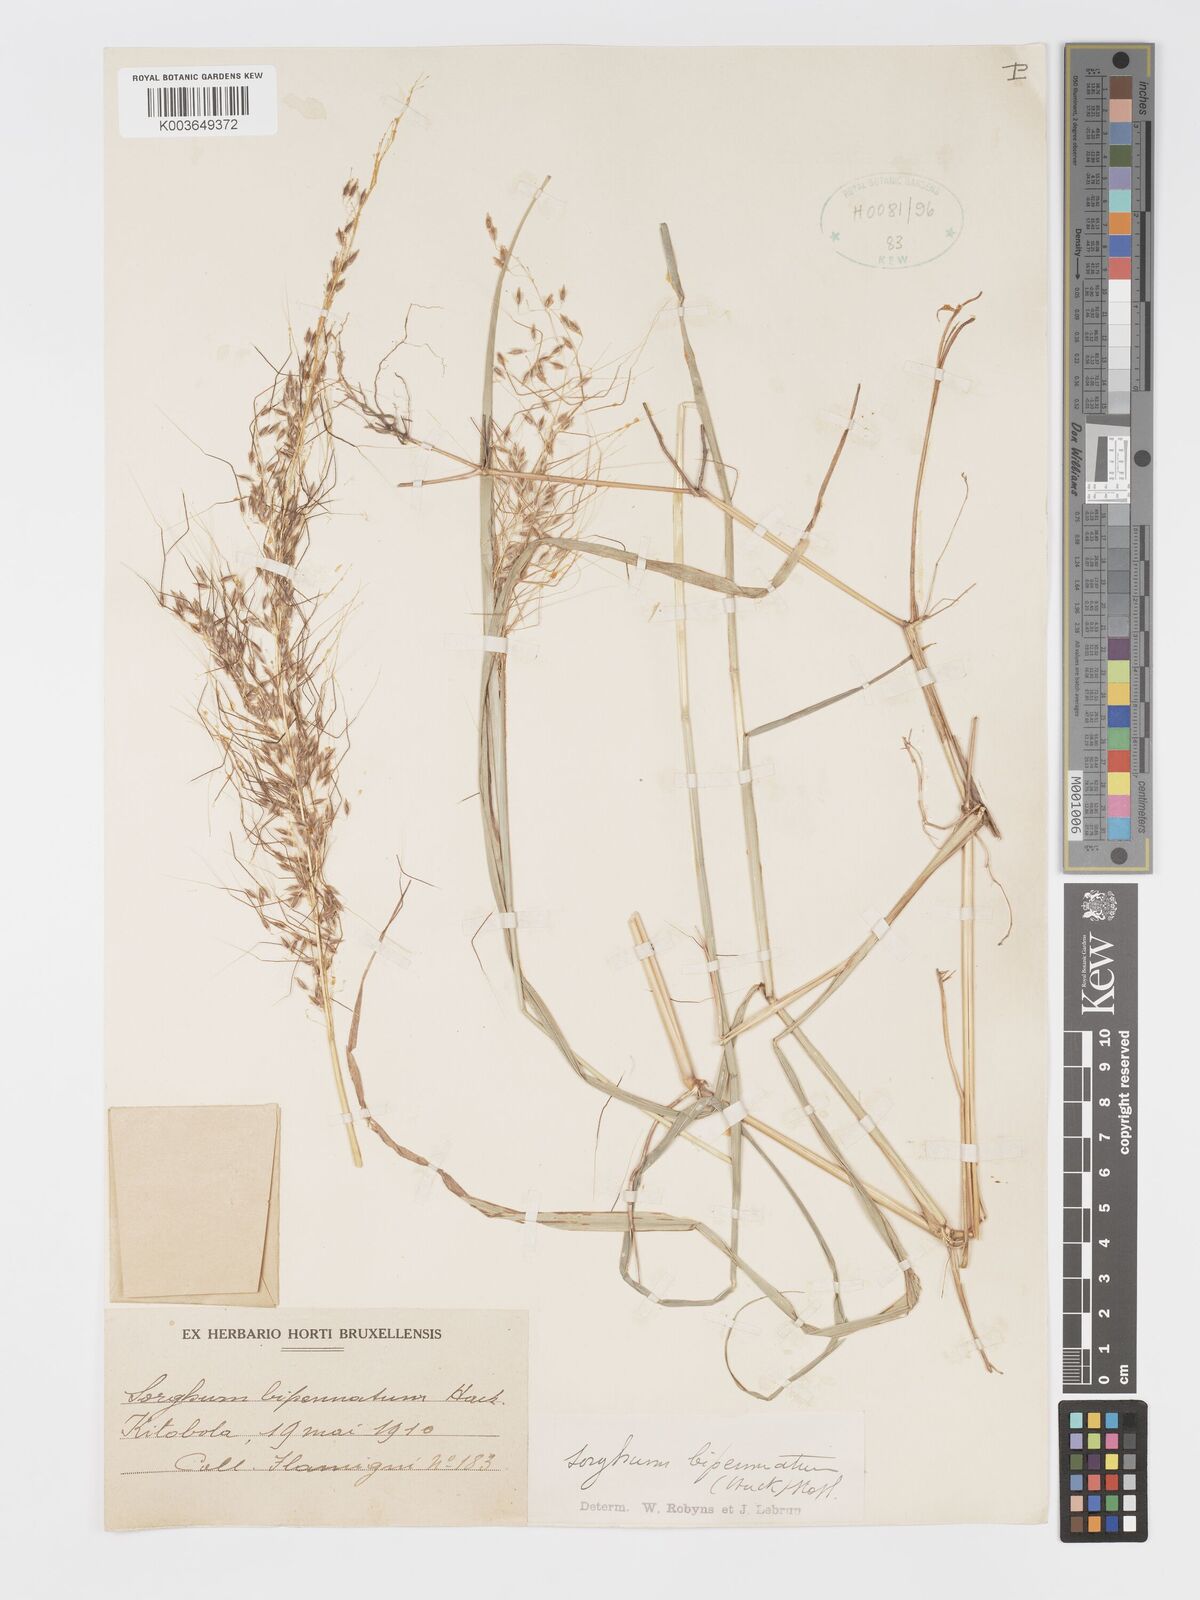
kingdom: Plantae
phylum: Tracheophyta
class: Liliopsida
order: Poales
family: Poaceae
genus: Sorghastrum
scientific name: Sorghastrum incompletum
